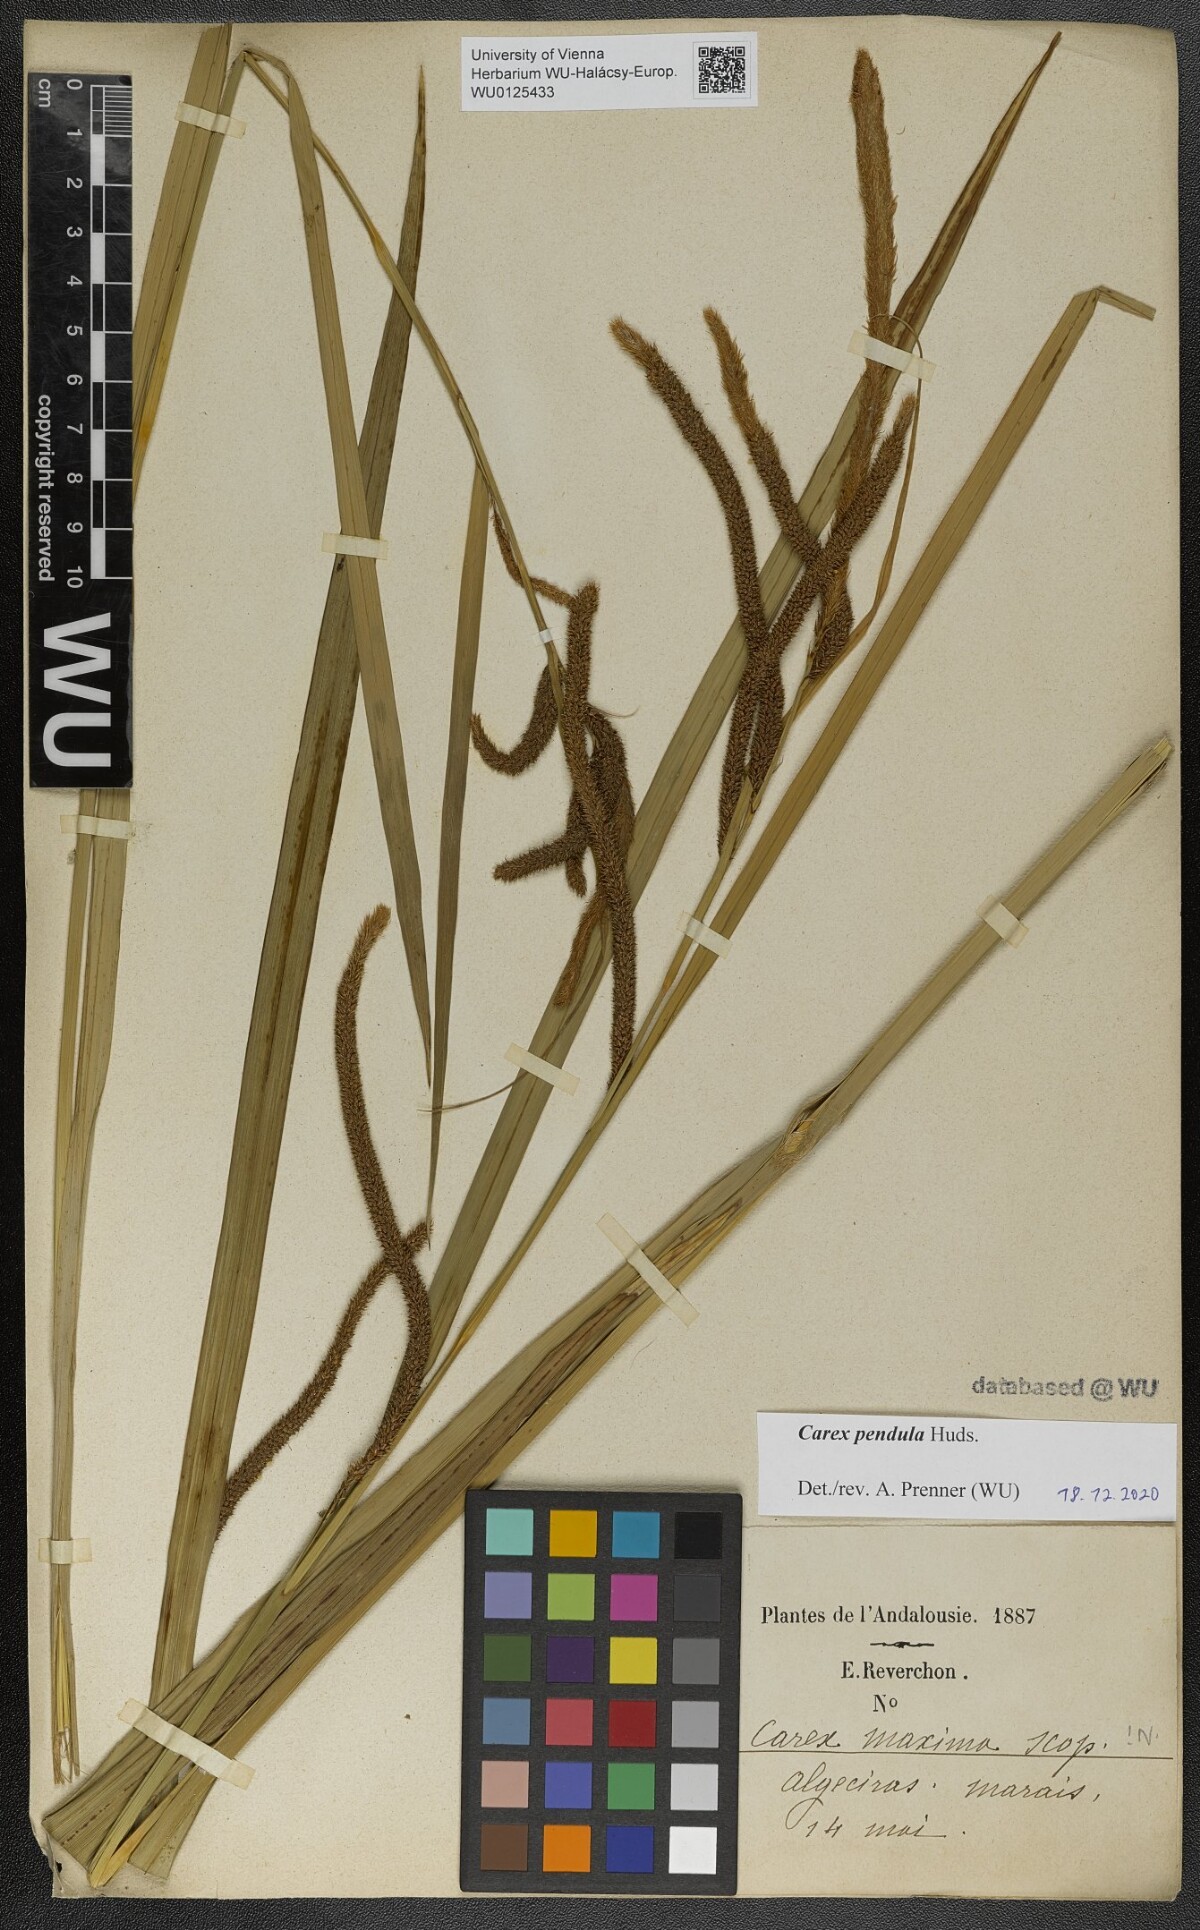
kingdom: Plantae
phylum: Tracheophyta
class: Liliopsida
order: Poales
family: Cyperaceae
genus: Carex
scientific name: Carex pendula
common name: Pendulous sedge
